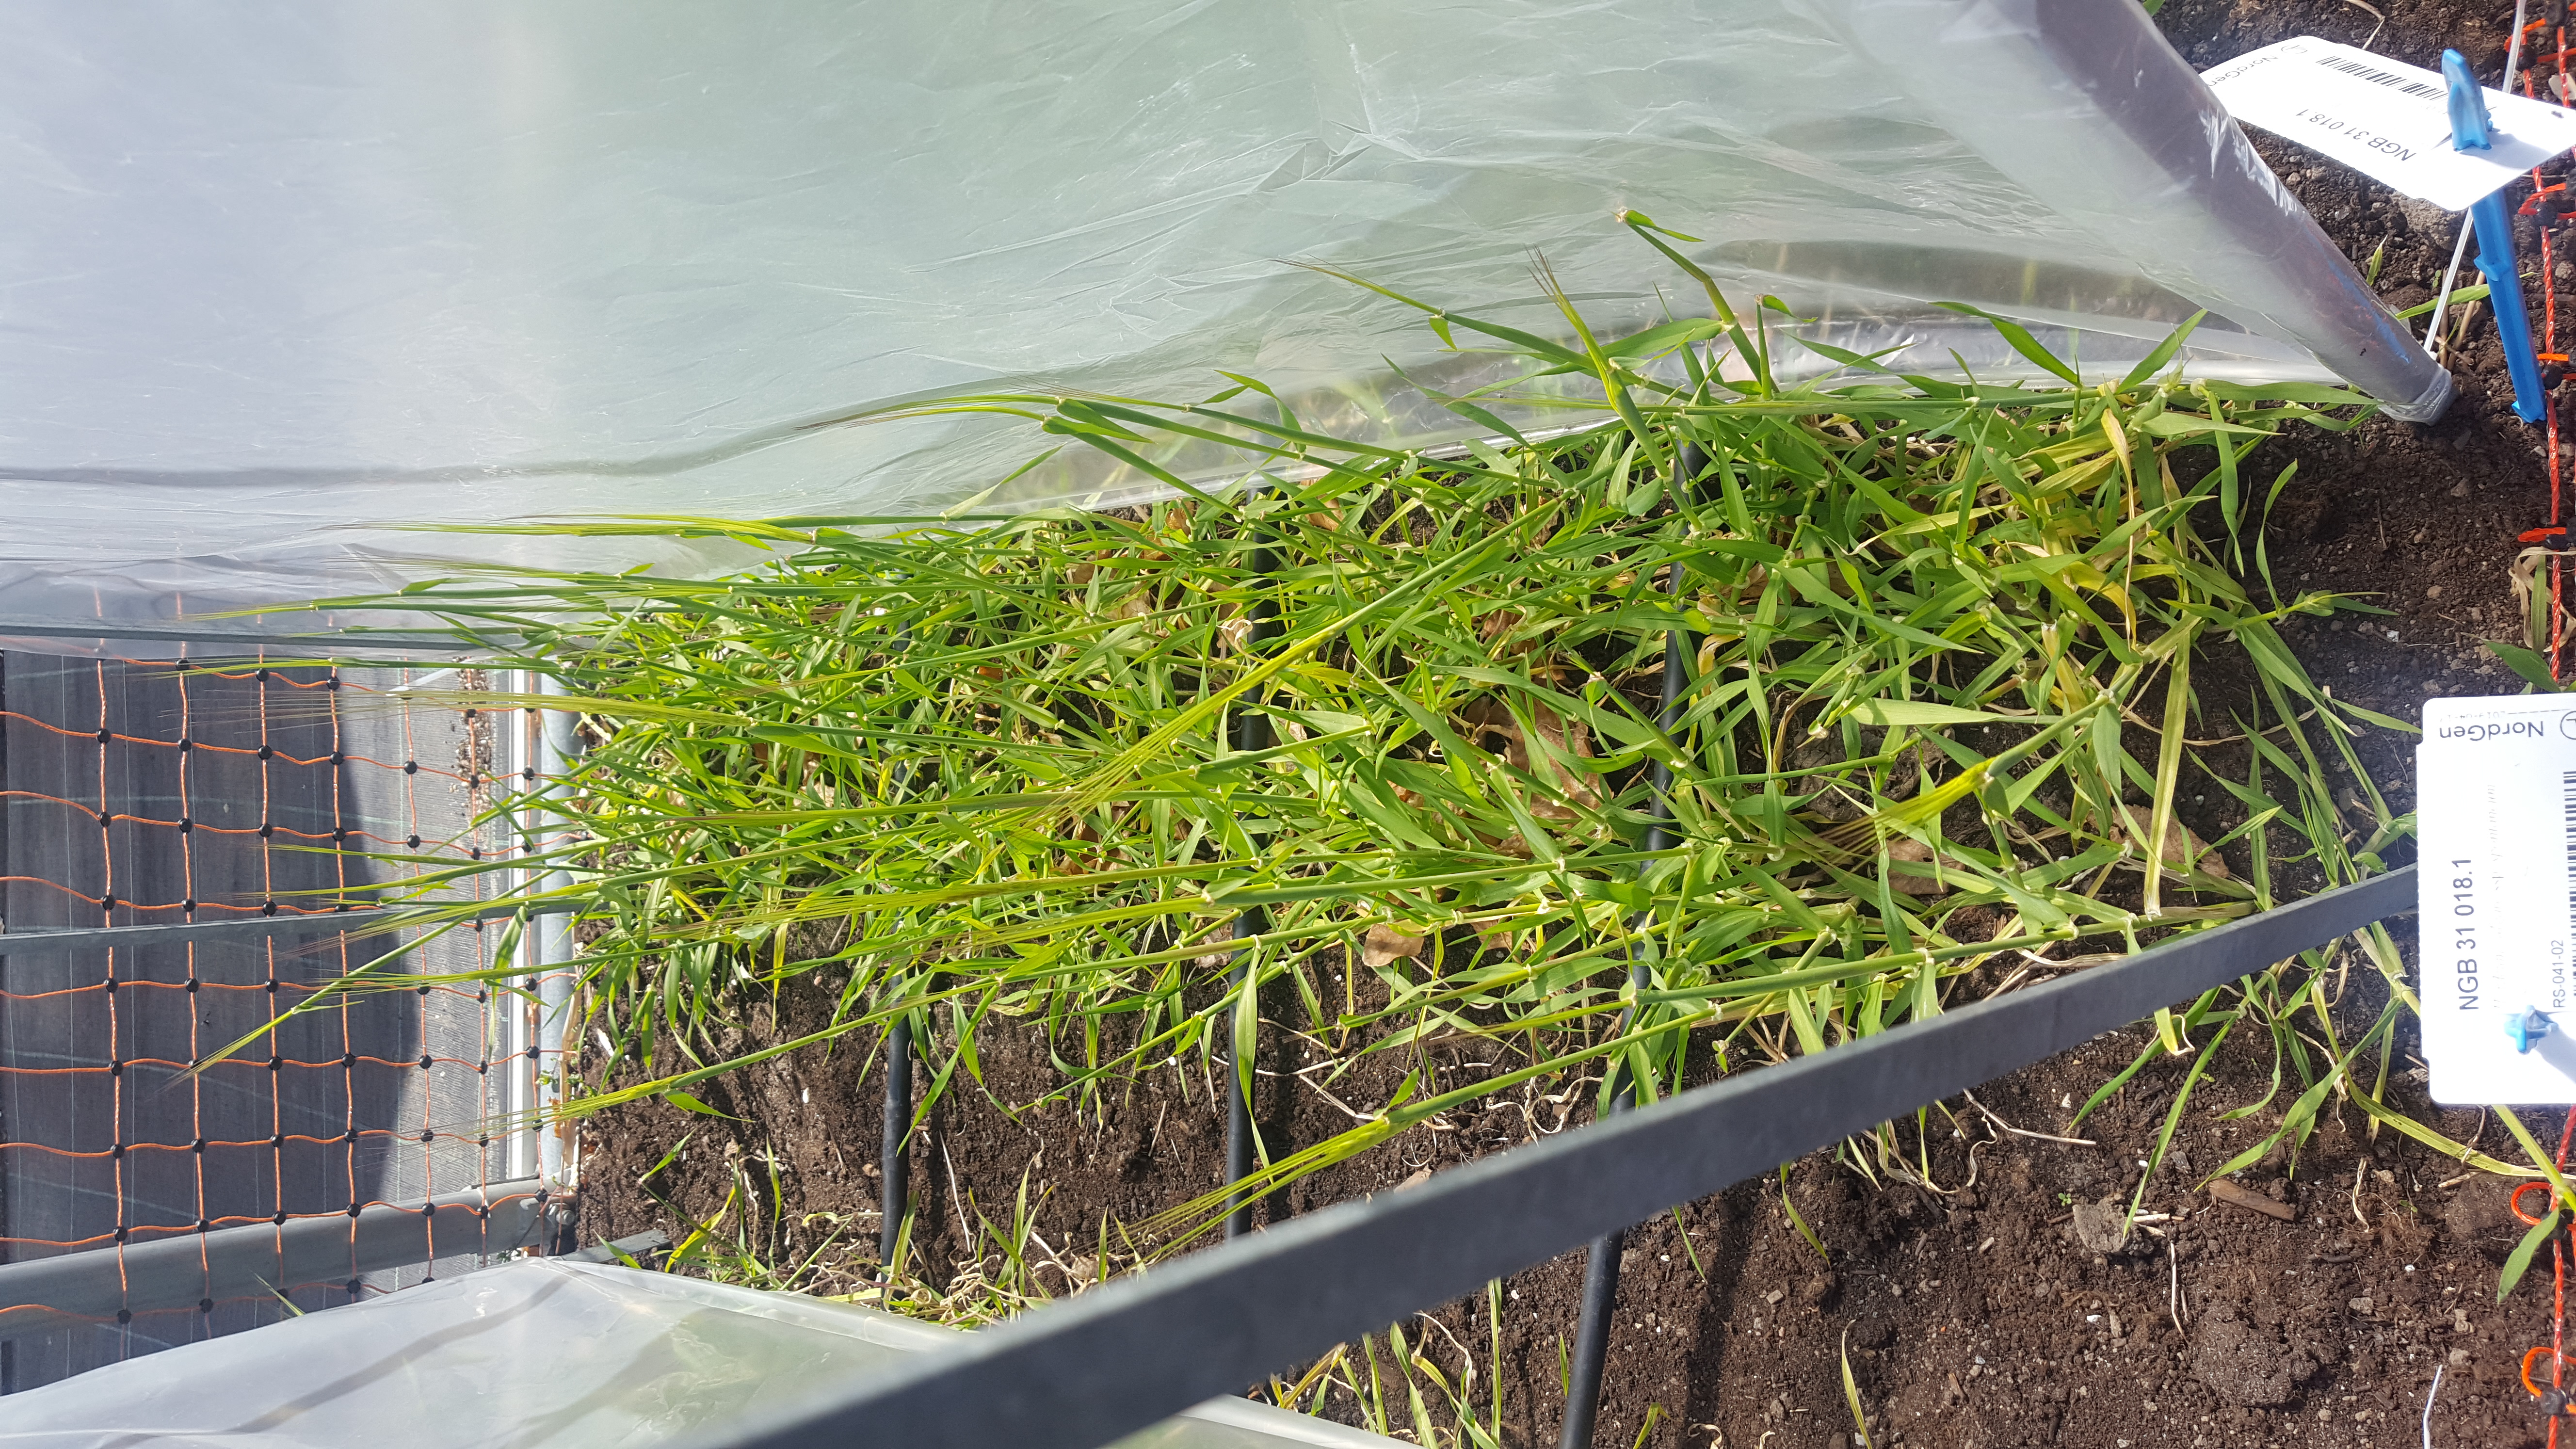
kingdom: Plantae
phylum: Tracheophyta
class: Liliopsida
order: Poales
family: Poaceae
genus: Hordeum
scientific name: Hordeum spontaneum
